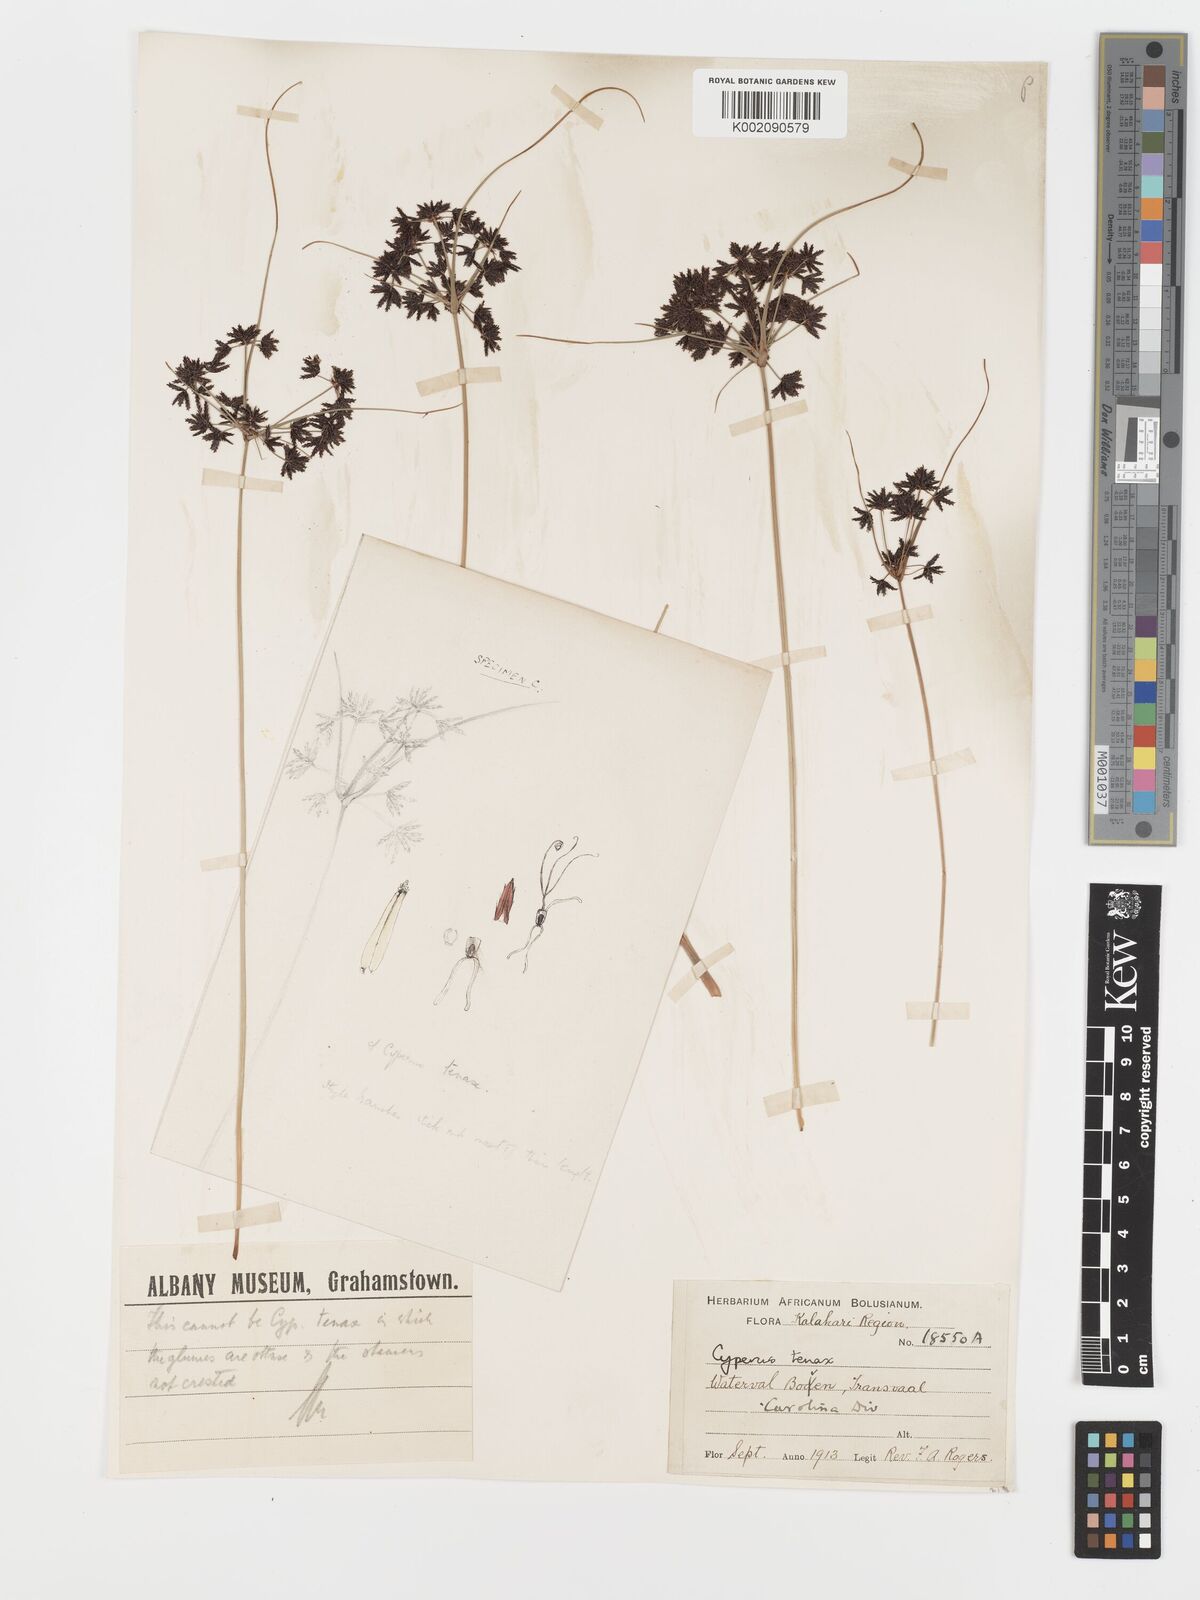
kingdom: Plantae
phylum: Tracheophyta
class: Liliopsida
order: Poales
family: Cyperaceae
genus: Cyperus
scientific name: Cyperus tenax
